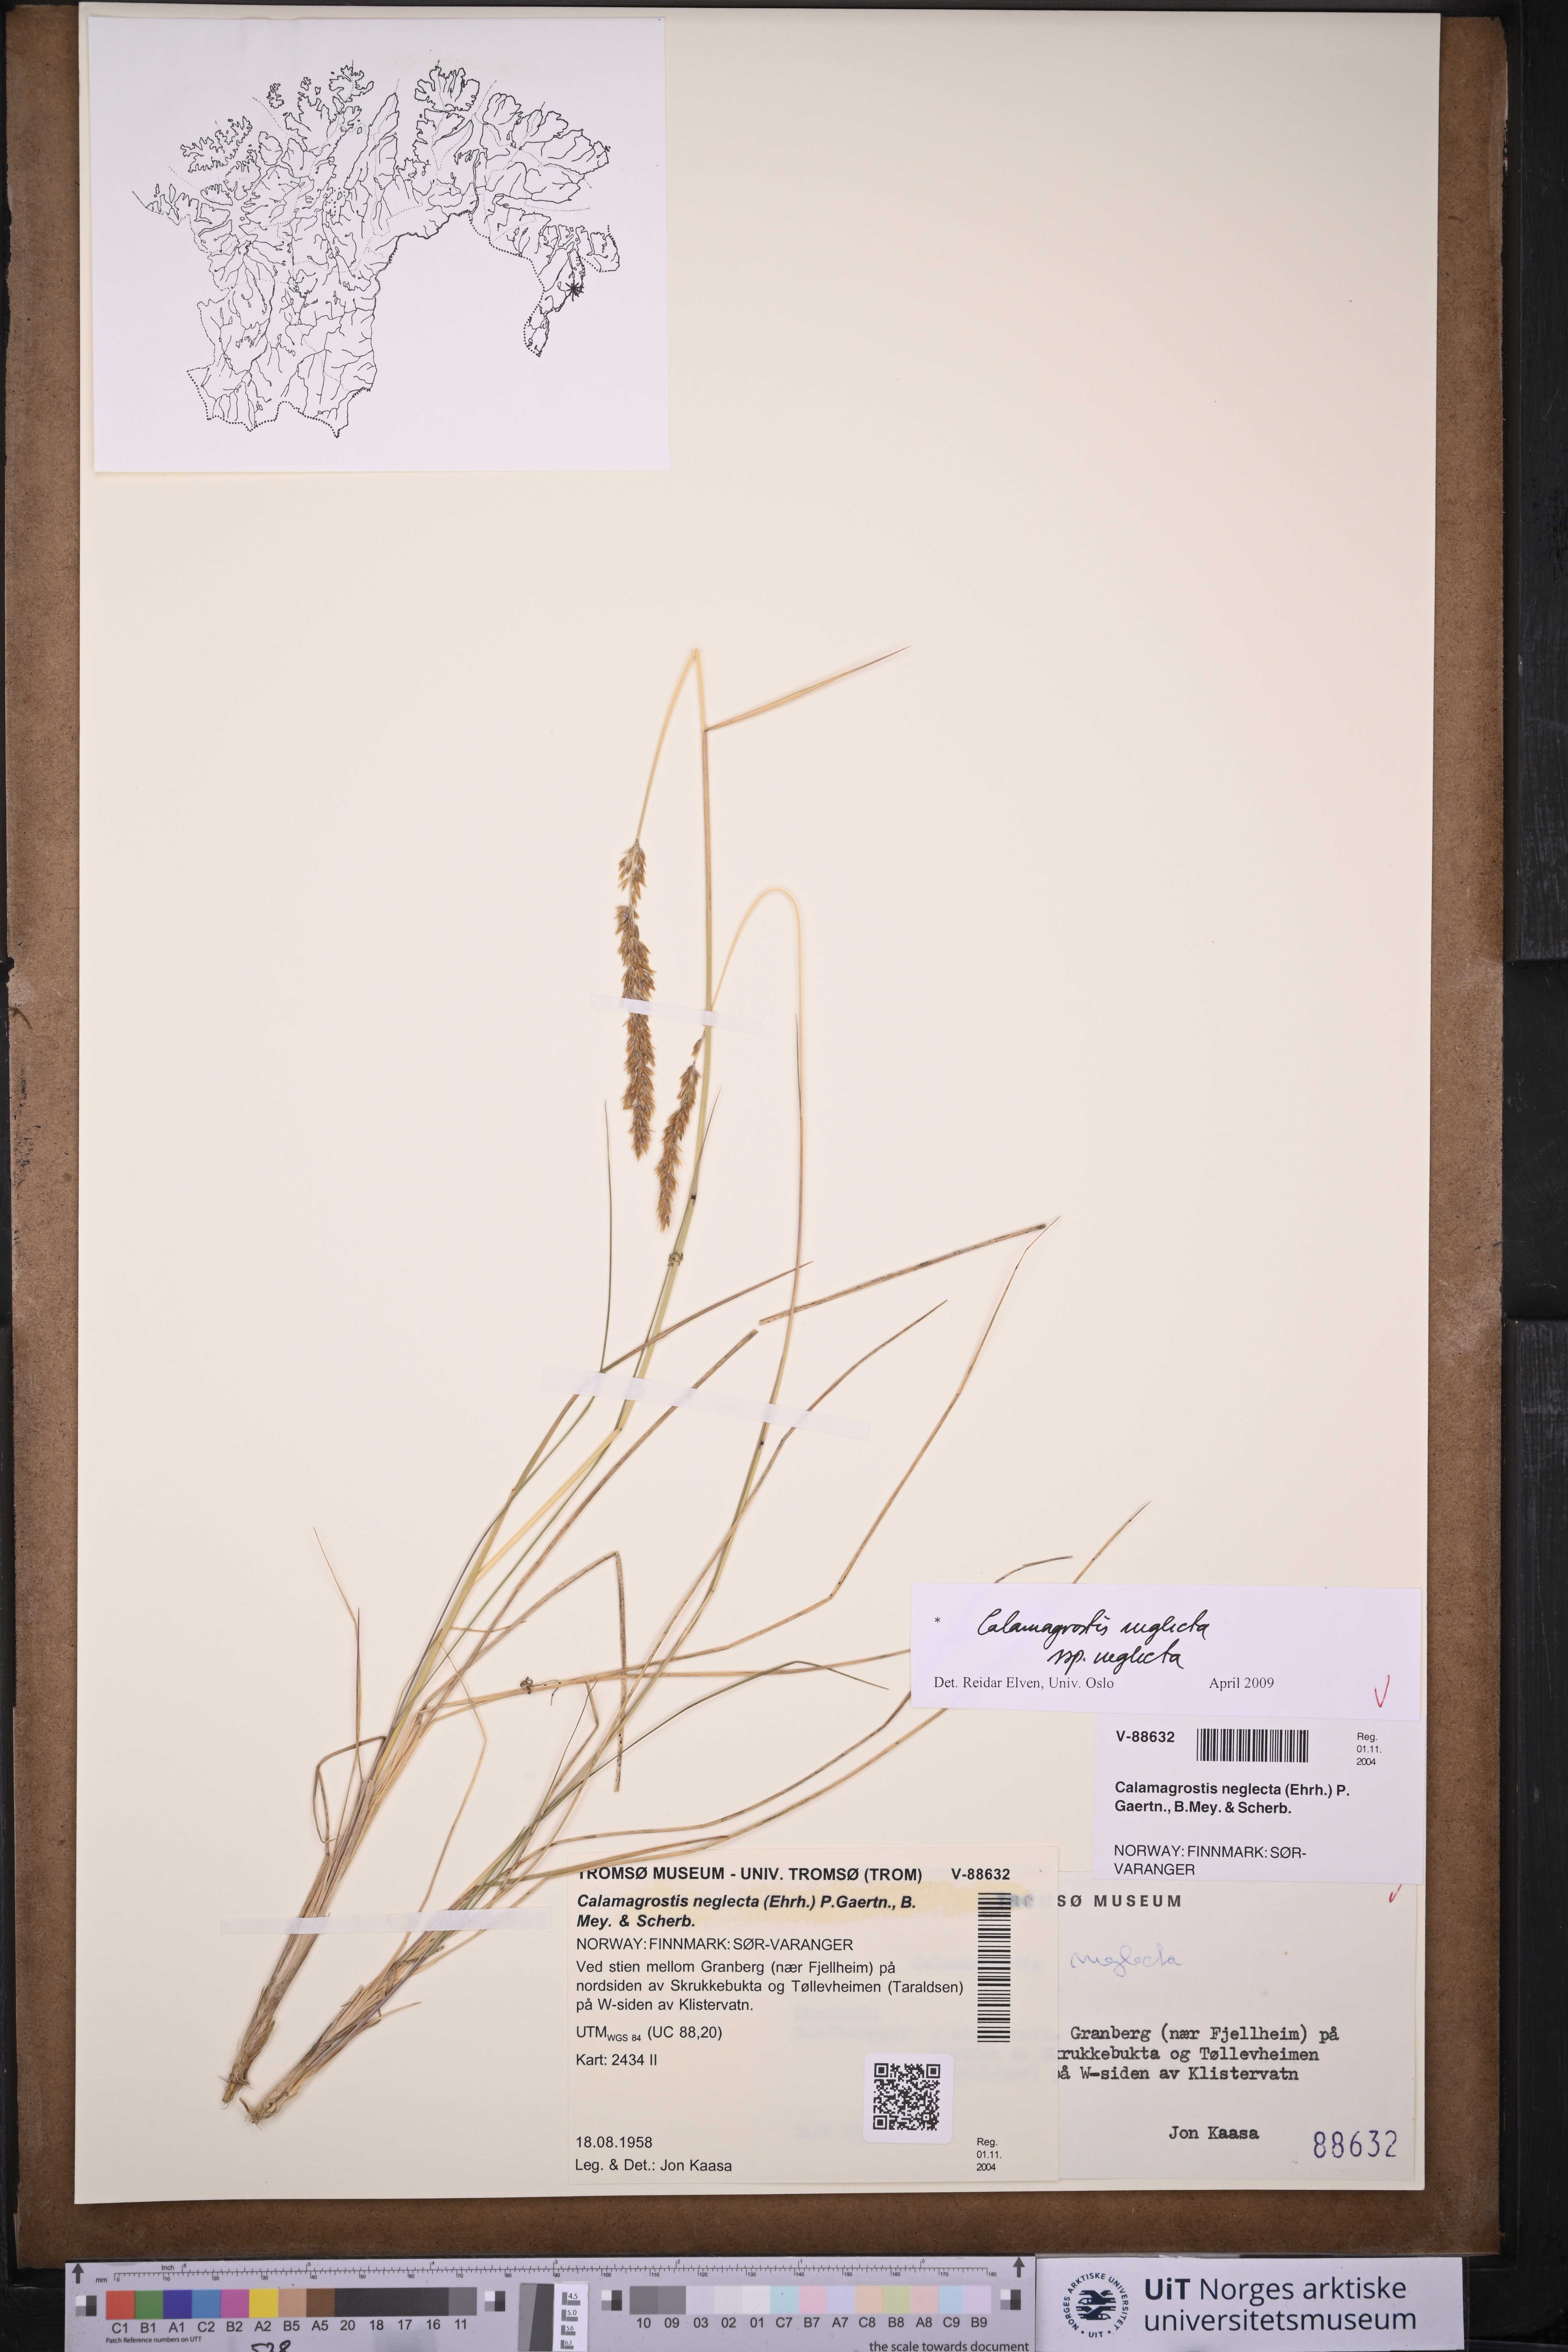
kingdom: Plantae
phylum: Tracheophyta
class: Liliopsida
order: Poales
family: Poaceae
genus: Achnatherum
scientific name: Achnatherum calamagrostis
